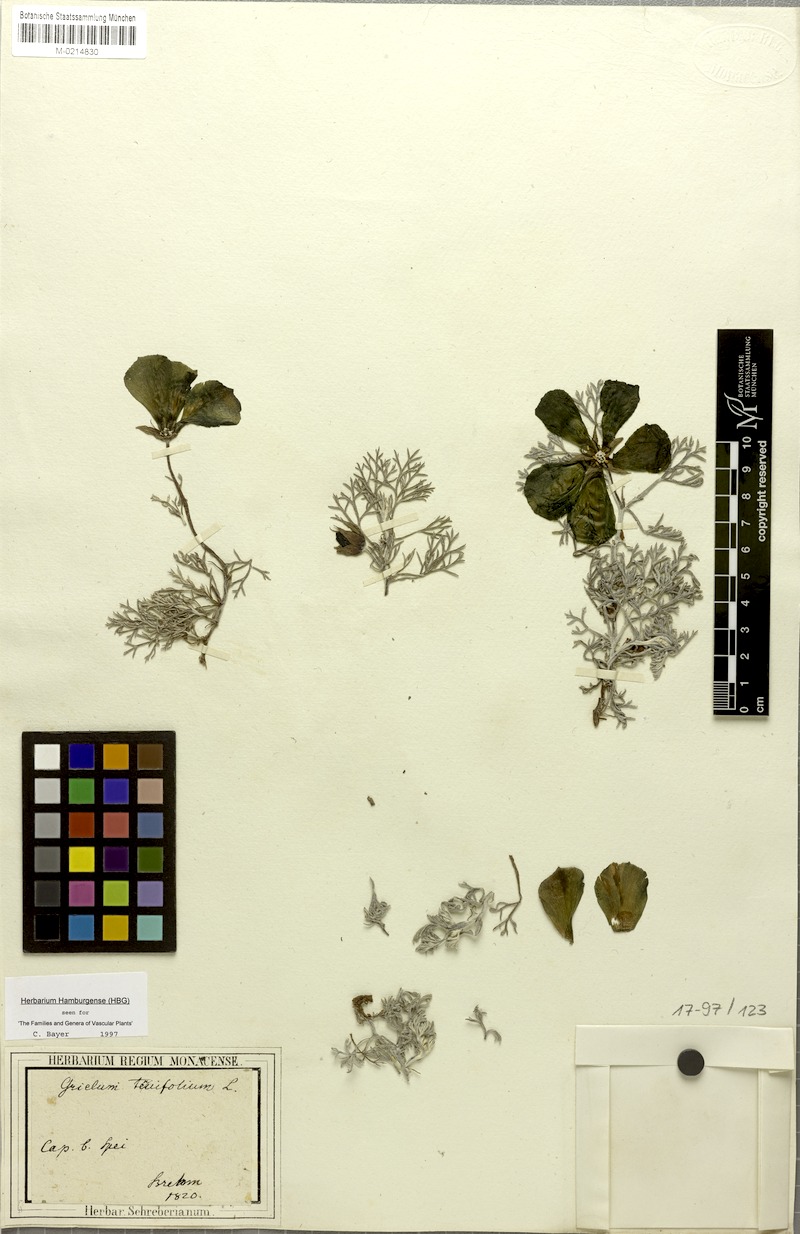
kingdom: Plantae
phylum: Tracheophyta
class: Magnoliopsida
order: Malvales
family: Neuradaceae
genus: Grielum
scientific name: Grielum grandiflorum
